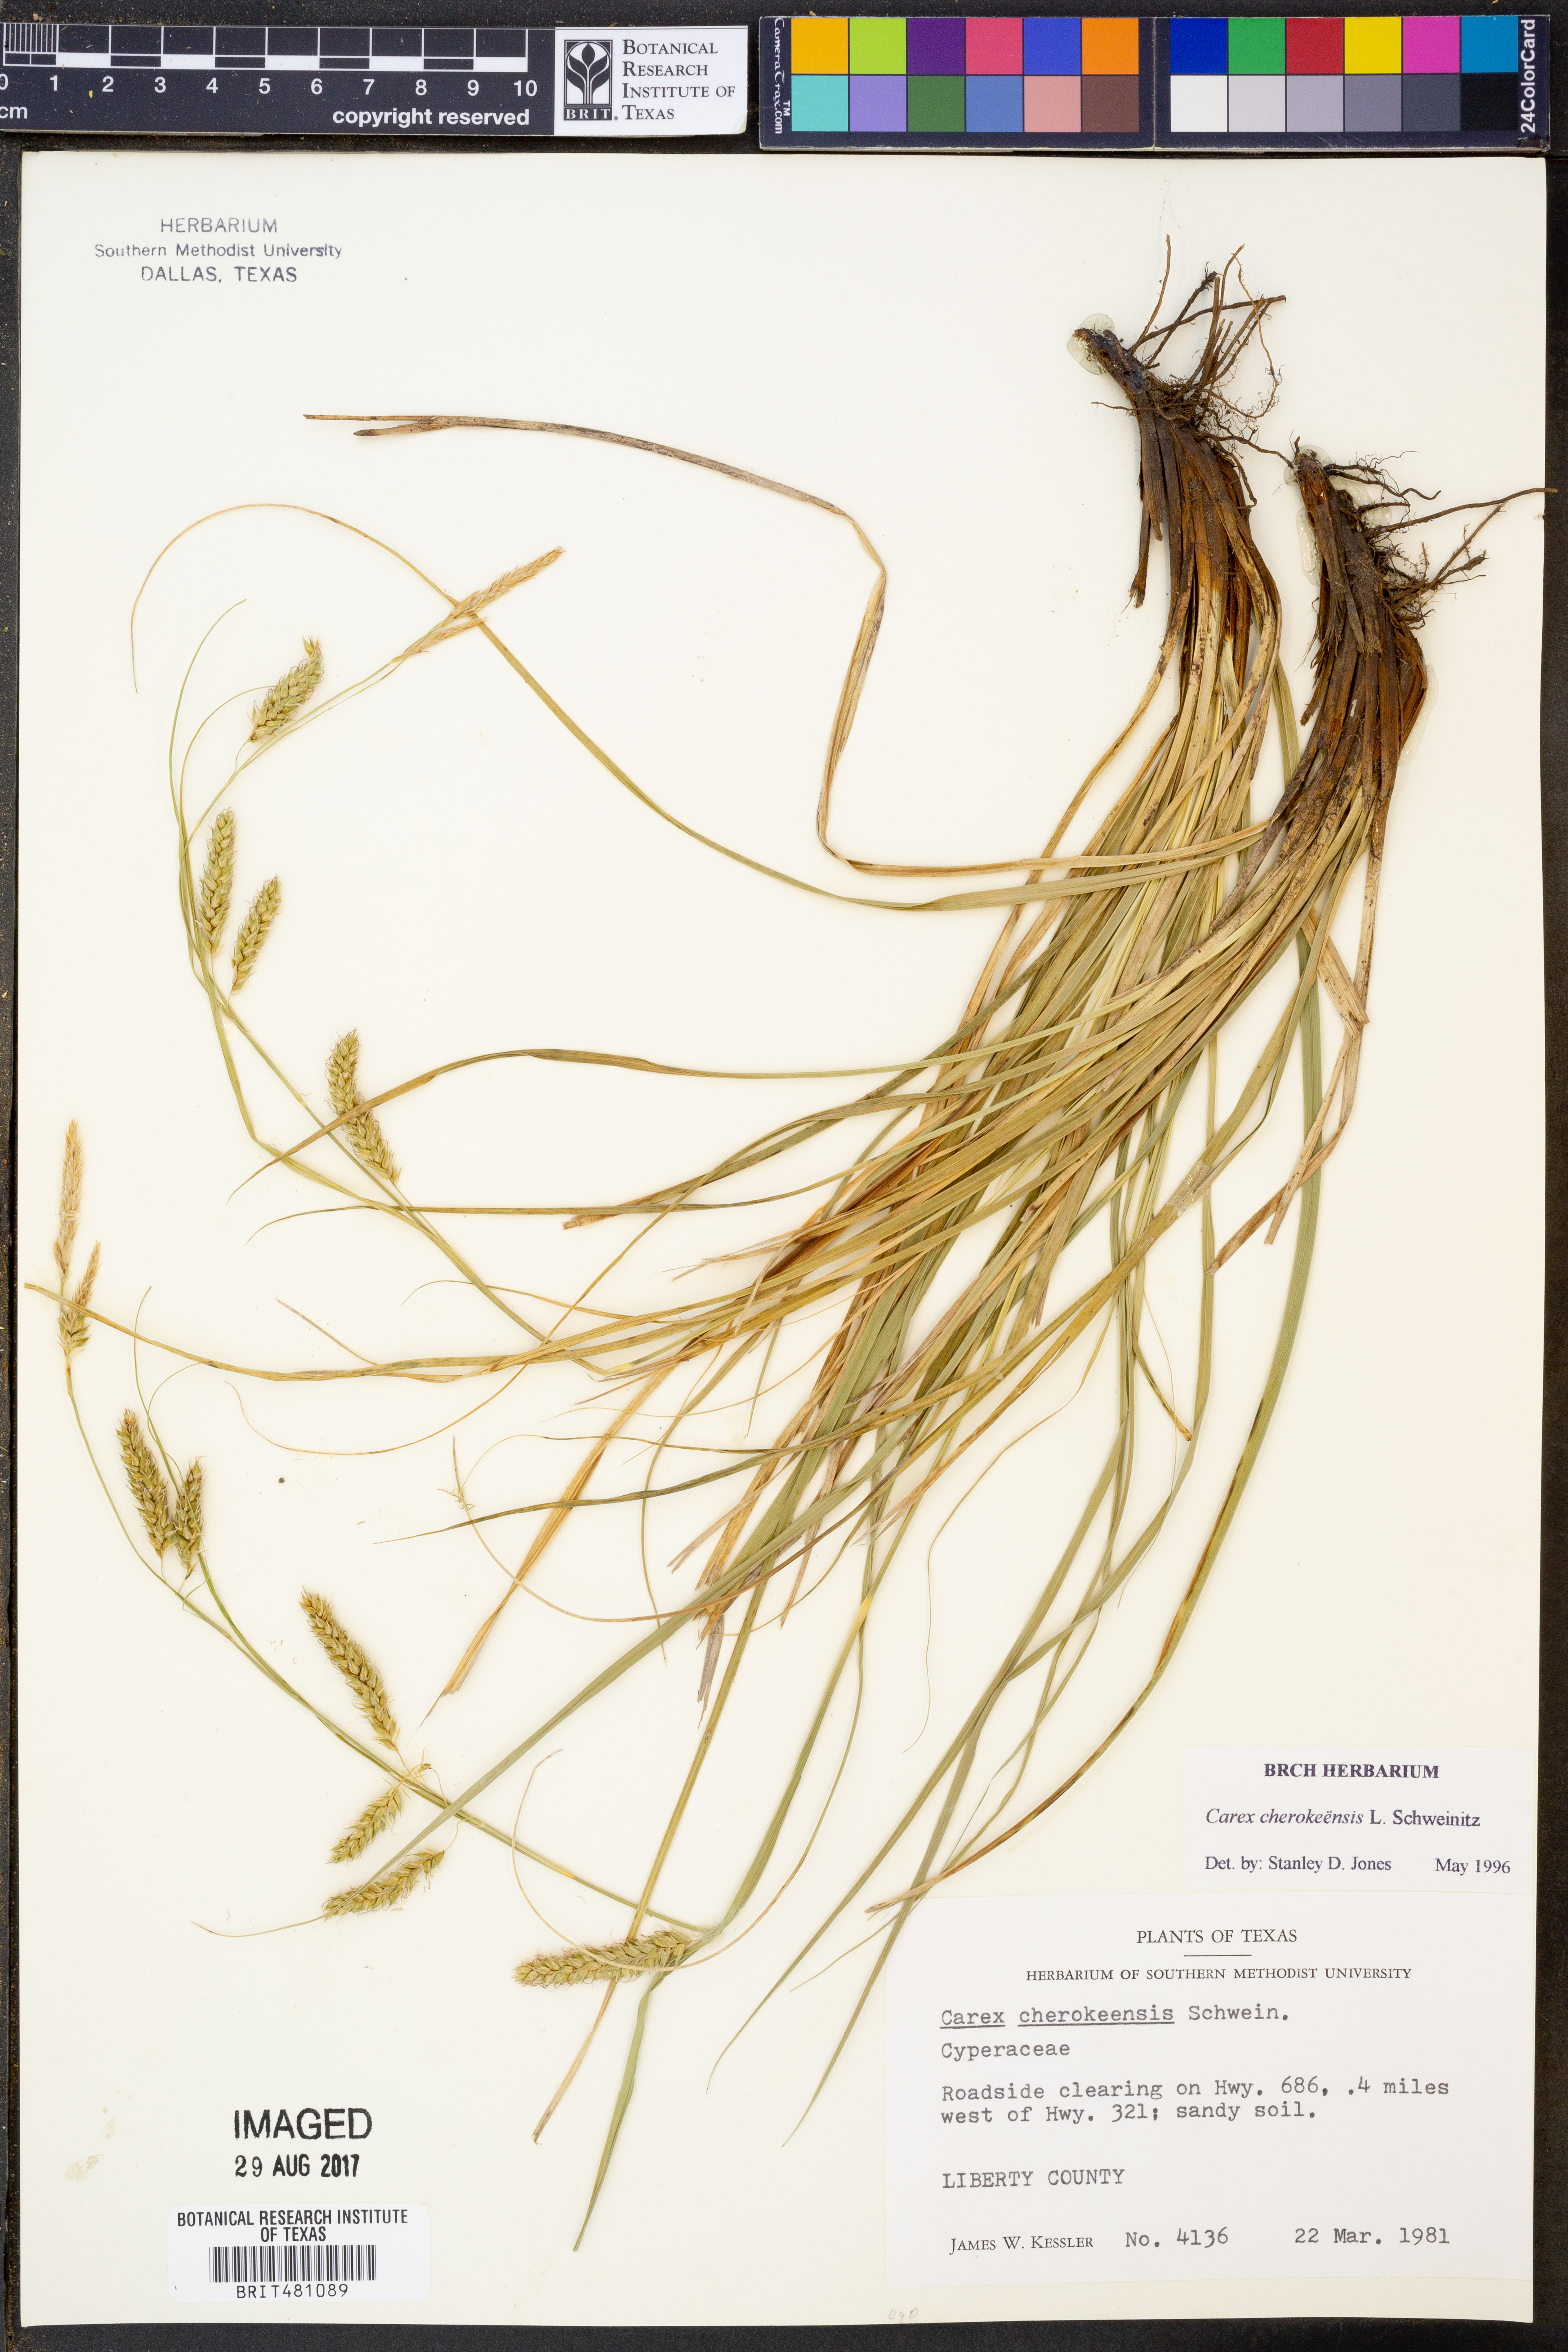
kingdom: Plantae
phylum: Tracheophyta
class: Liliopsida
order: Poales
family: Cyperaceae
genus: Carex
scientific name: Carex cherokeensis
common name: Cherokee sedge
